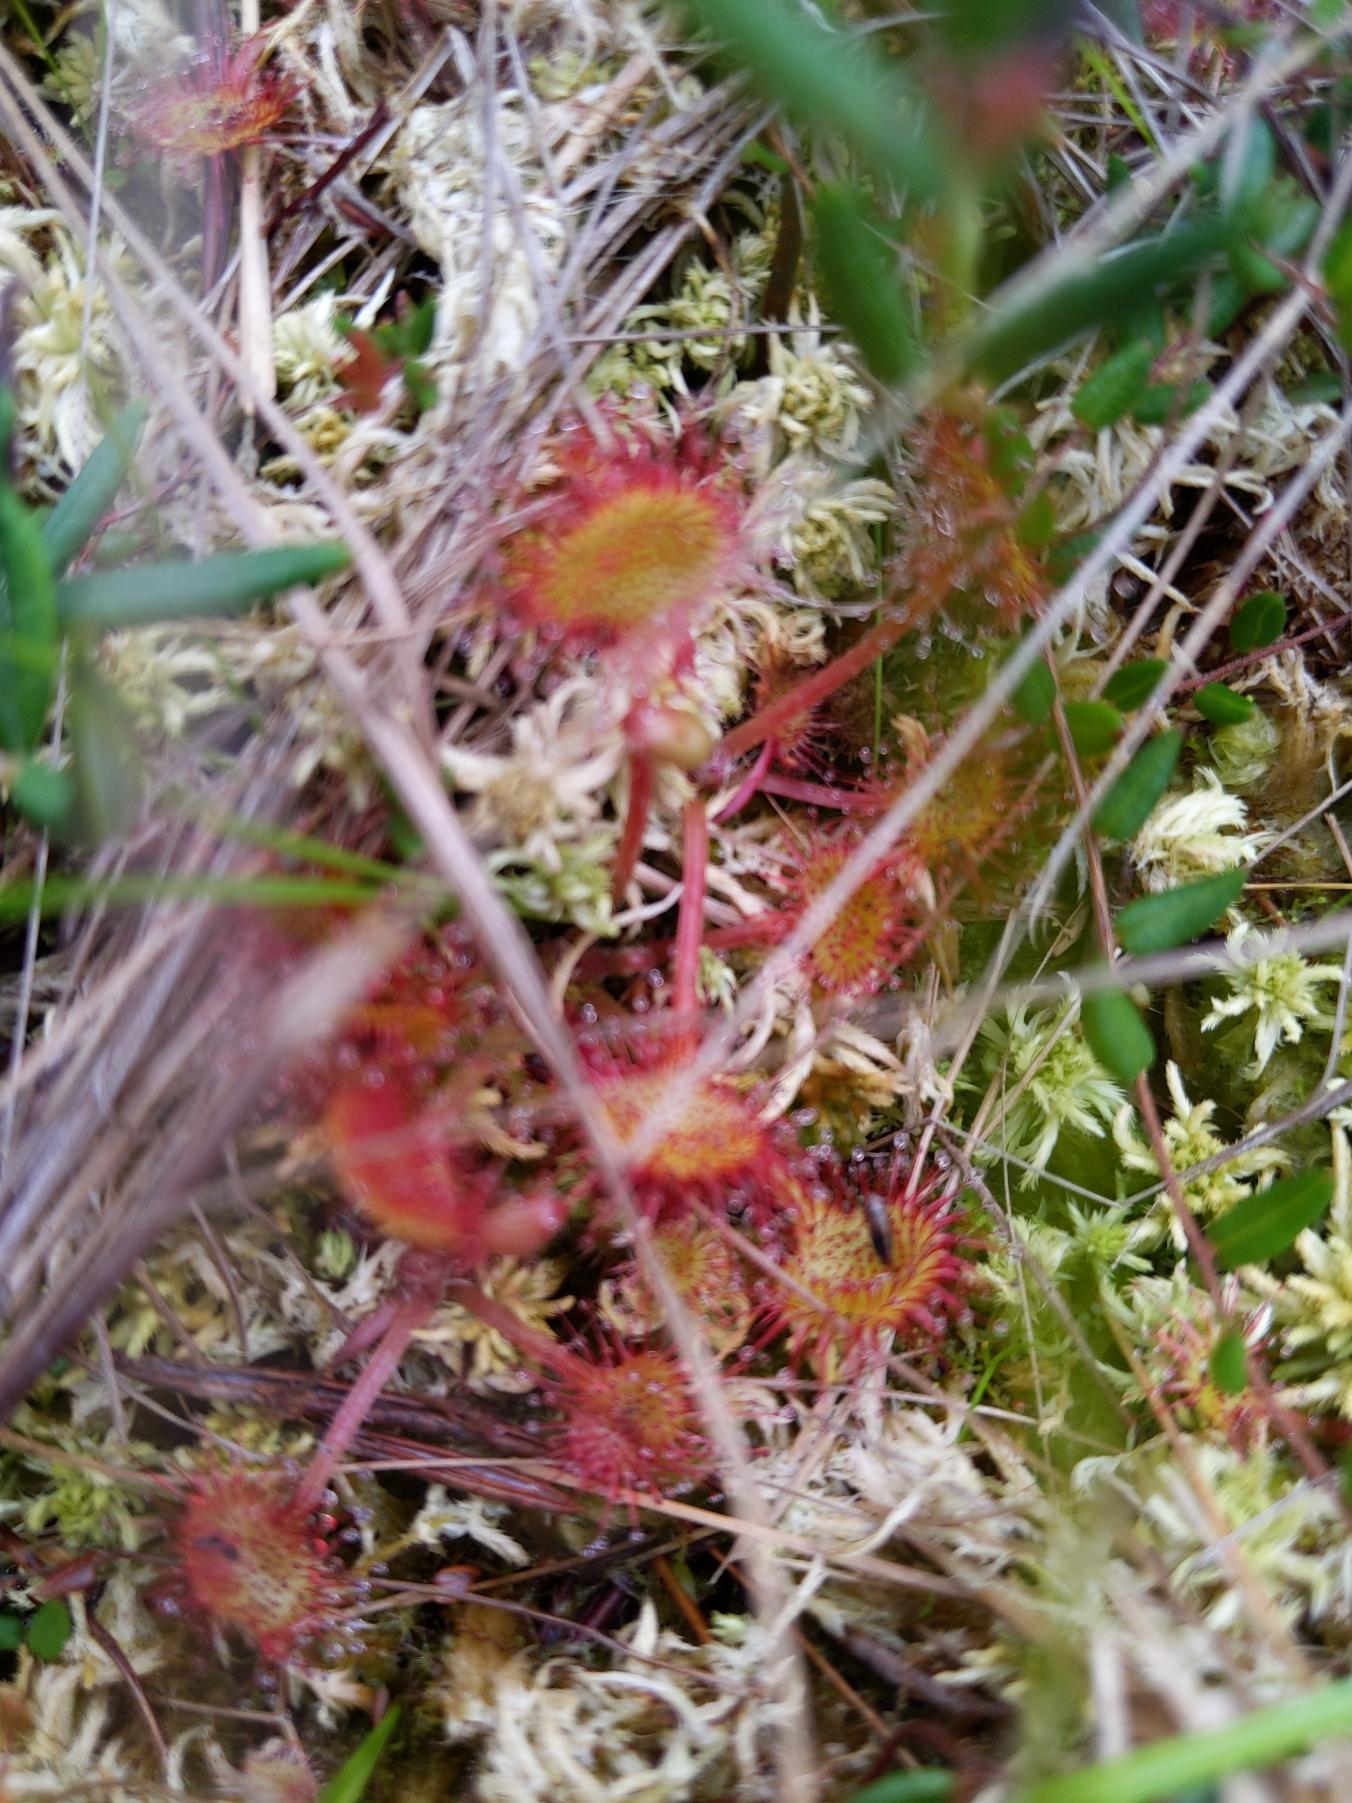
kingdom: Plantae
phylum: Tracheophyta
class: Magnoliopsida
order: Caryophyllales
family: Droseraceae
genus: Drosera
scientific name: Drosera rotundifolia
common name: Rundbladet soldug
